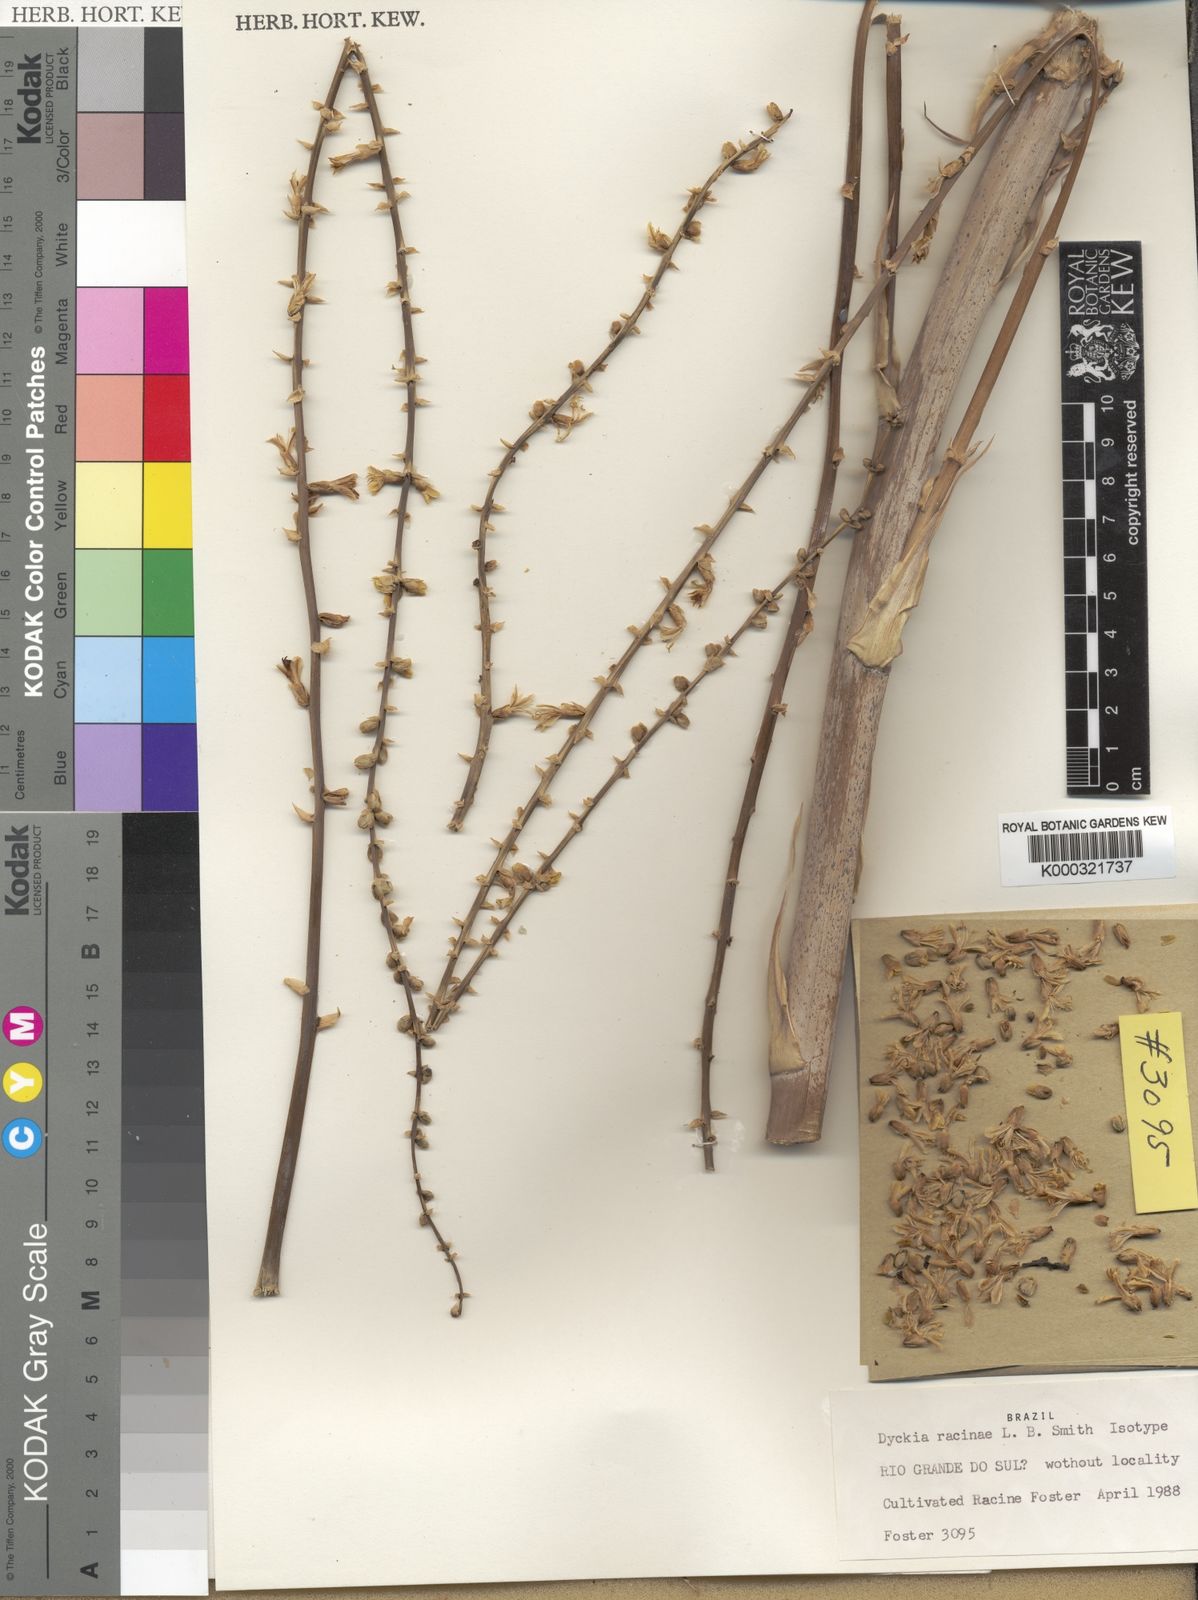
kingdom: Plantae
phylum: Tracheophyta
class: Liliopsida
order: Poales
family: Bromeliaceae
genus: Dyckia
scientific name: Dyckia racinae
